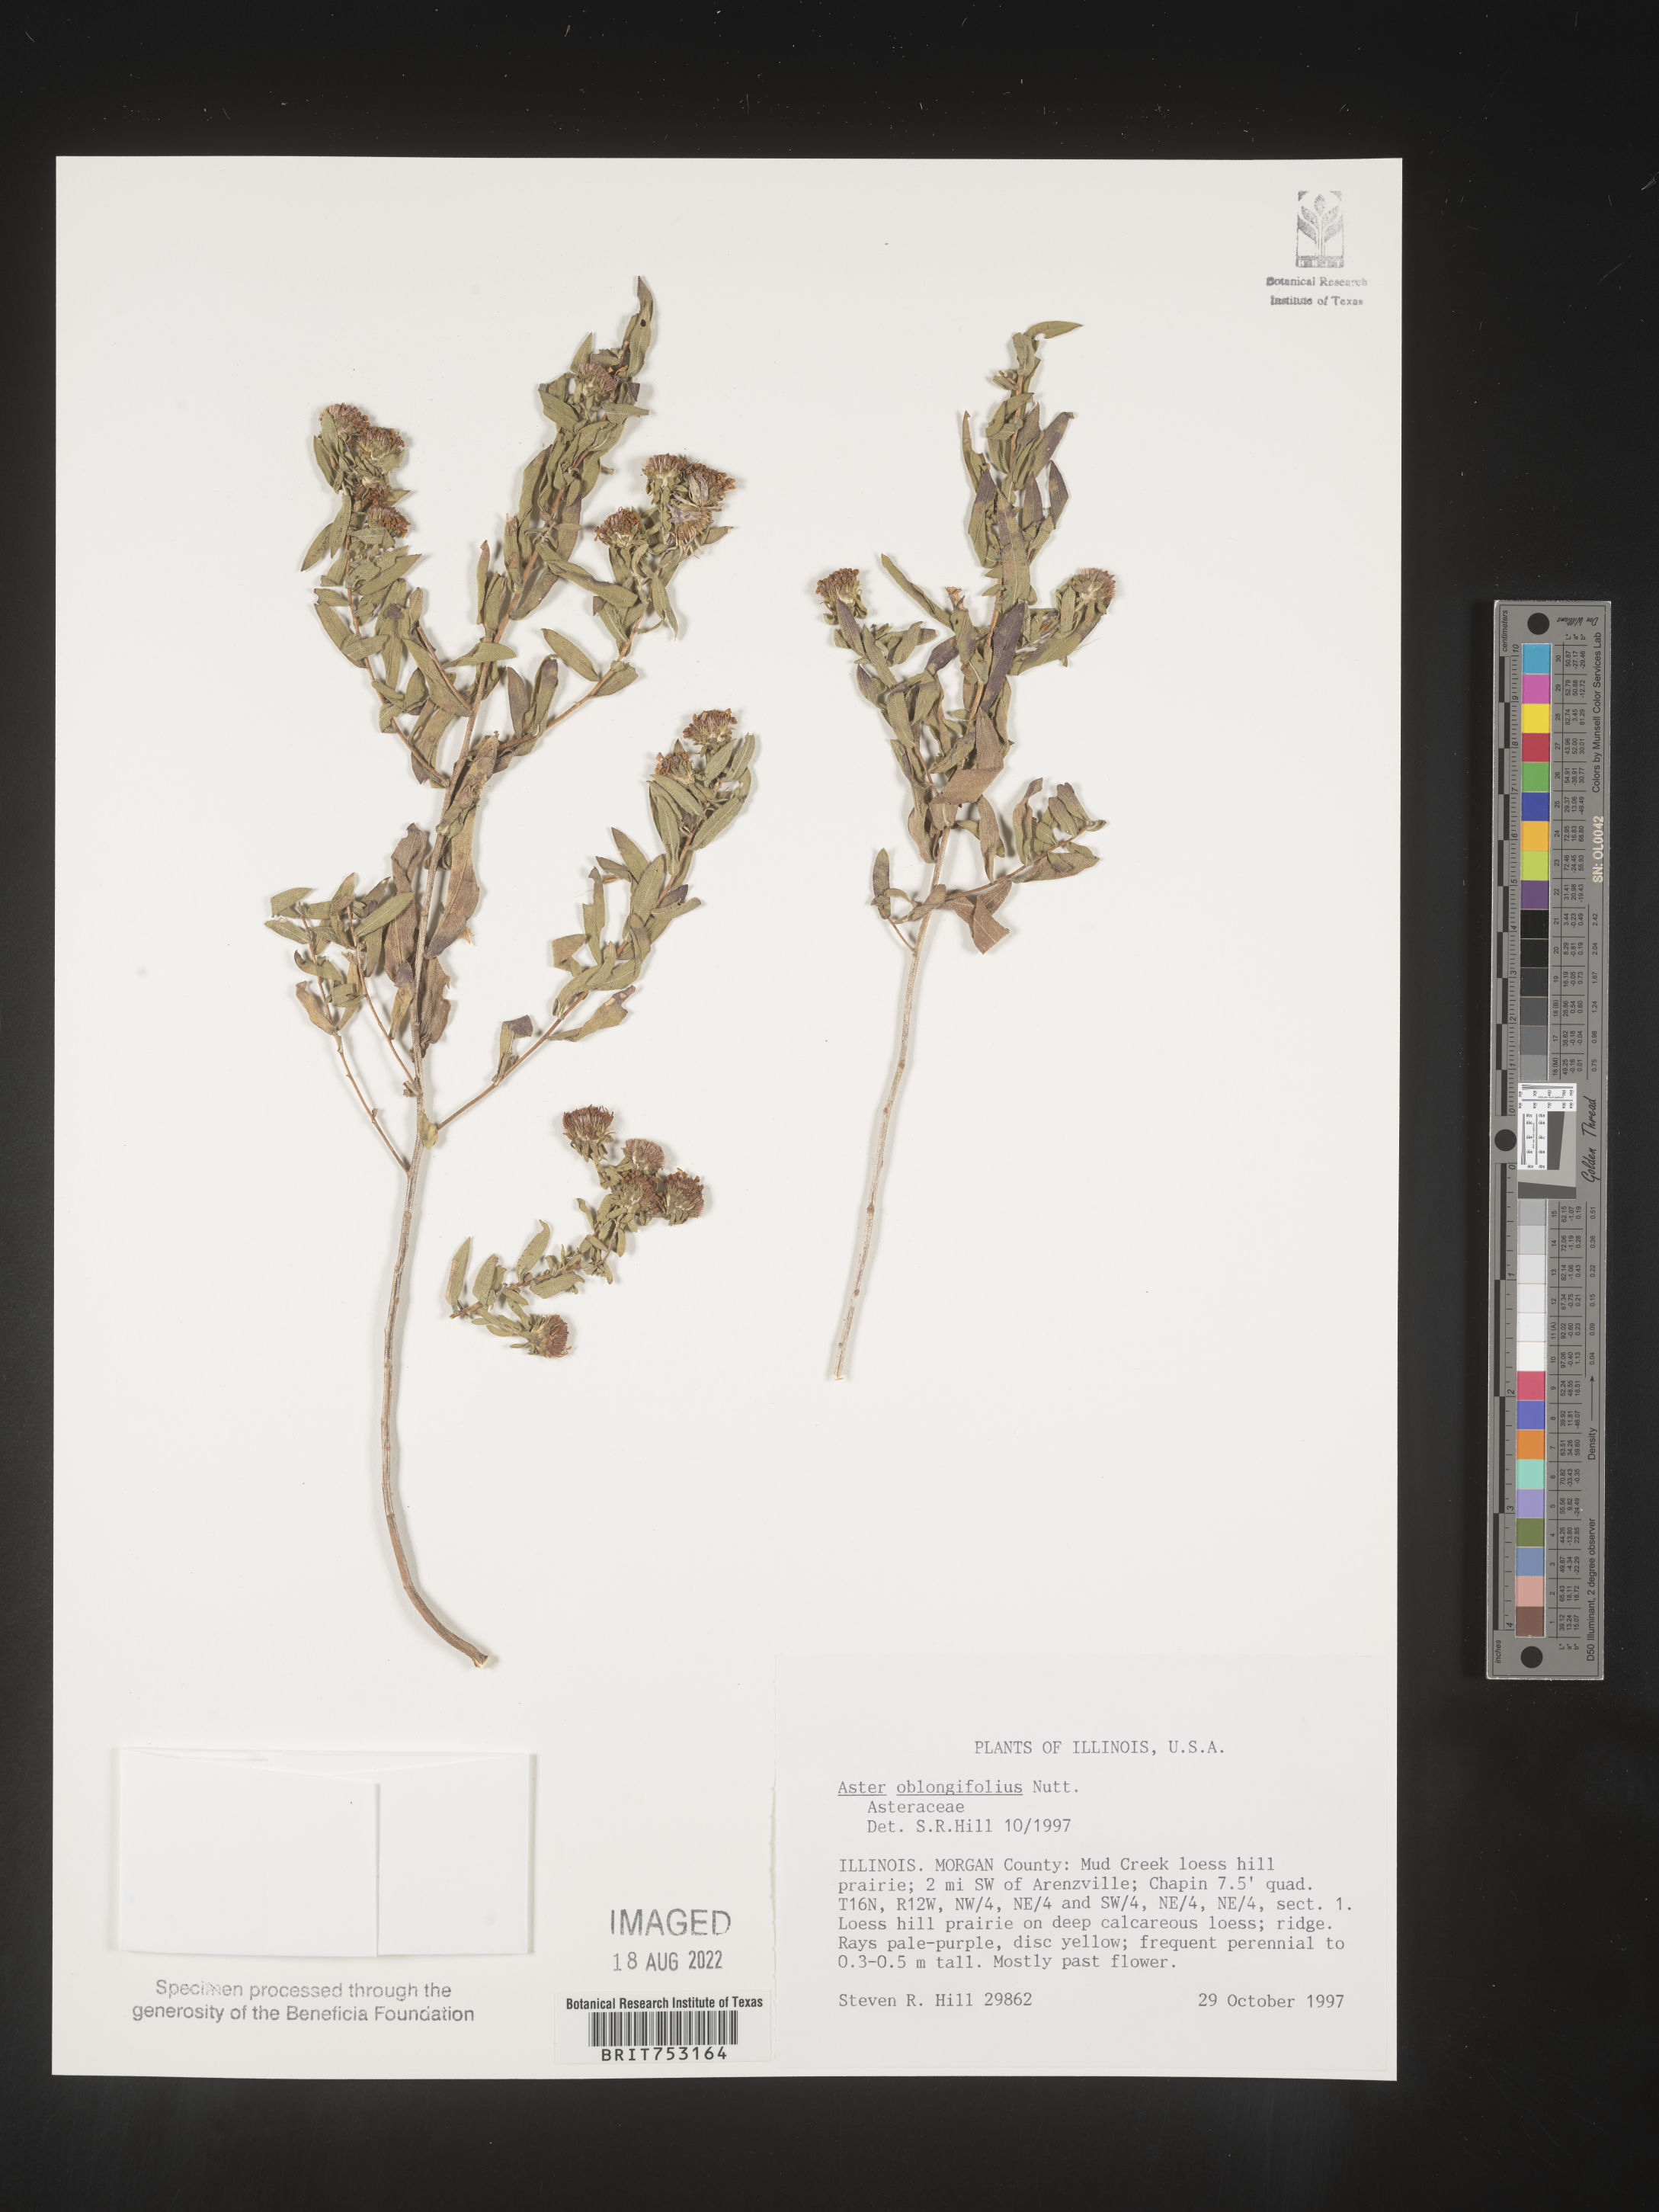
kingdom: Plantae
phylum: Tracheophyta
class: Magnoliopsida
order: Asterales
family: Asteraceae
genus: Symphyotrichum
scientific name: Symphyotrichum oblongifolium
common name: Aromatic aster
